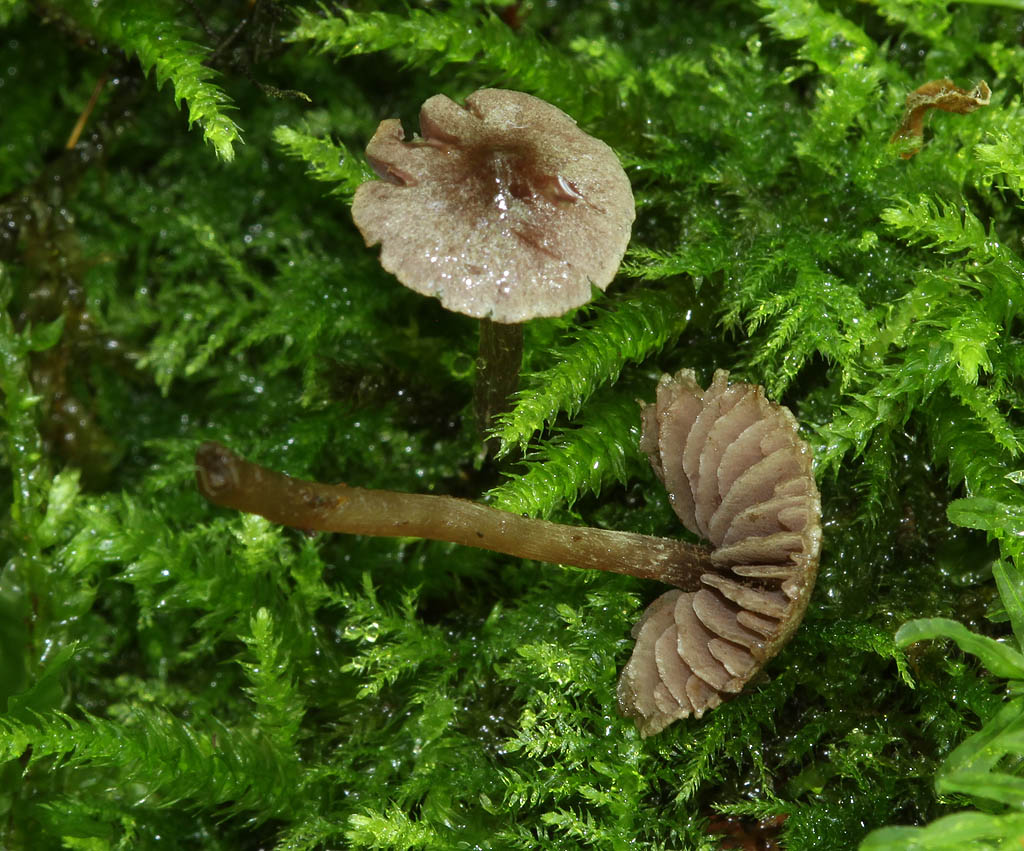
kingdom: Fungi
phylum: Basidiomycota
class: Agaricomycetes
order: Agaricales
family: Cortinariaceae
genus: Cortinarius
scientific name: Cortinarius bibulus
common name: smuk slørhat
